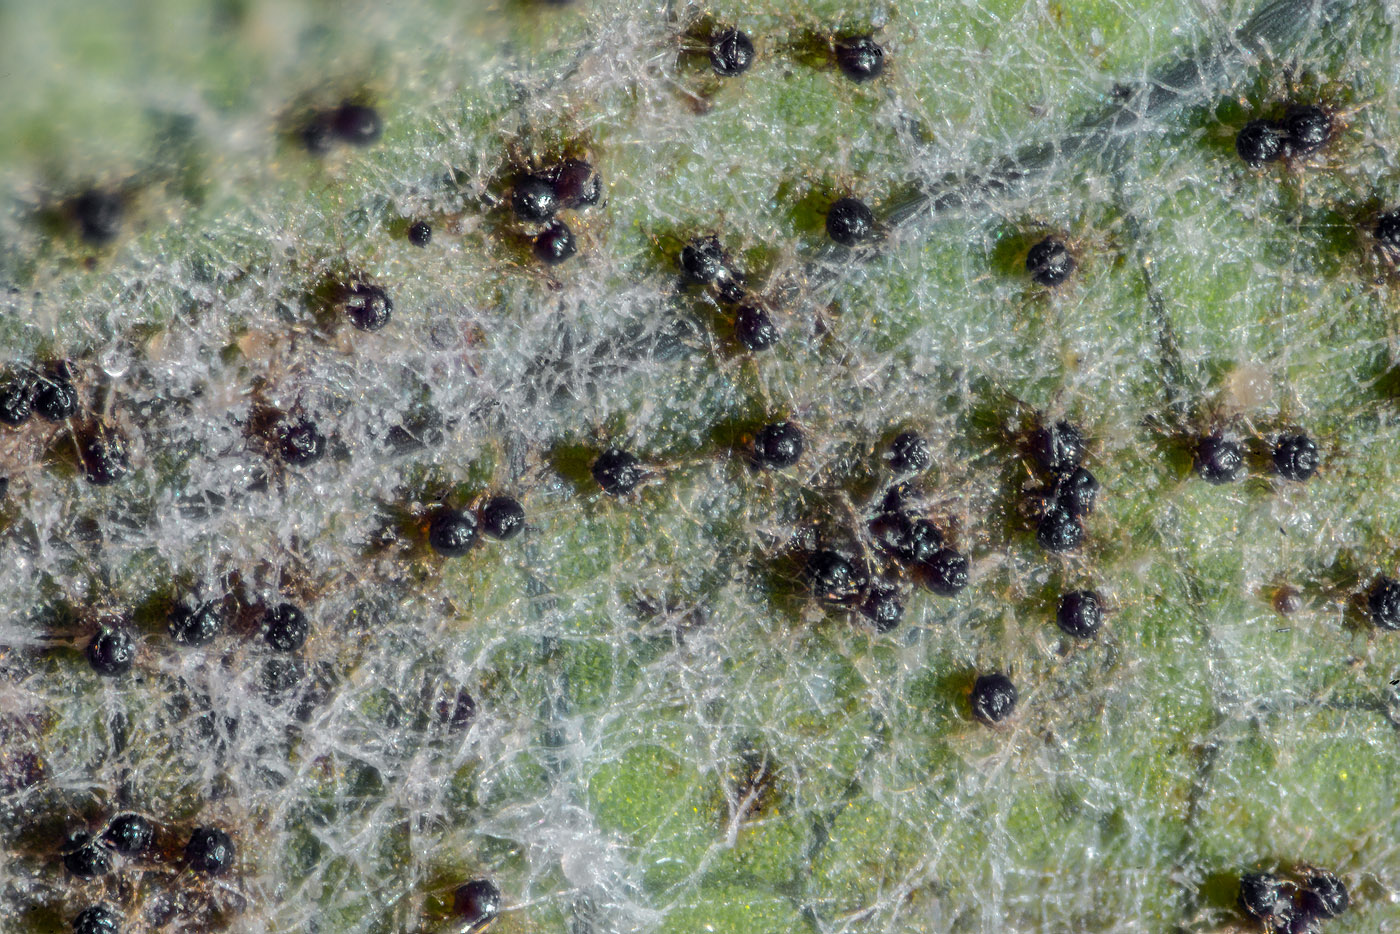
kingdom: Fungi
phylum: Ascomycota
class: Leotiomycetes
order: Helotiales
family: Erysiphaceae
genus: Podosphaera
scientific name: Podosphaera balsaminae
